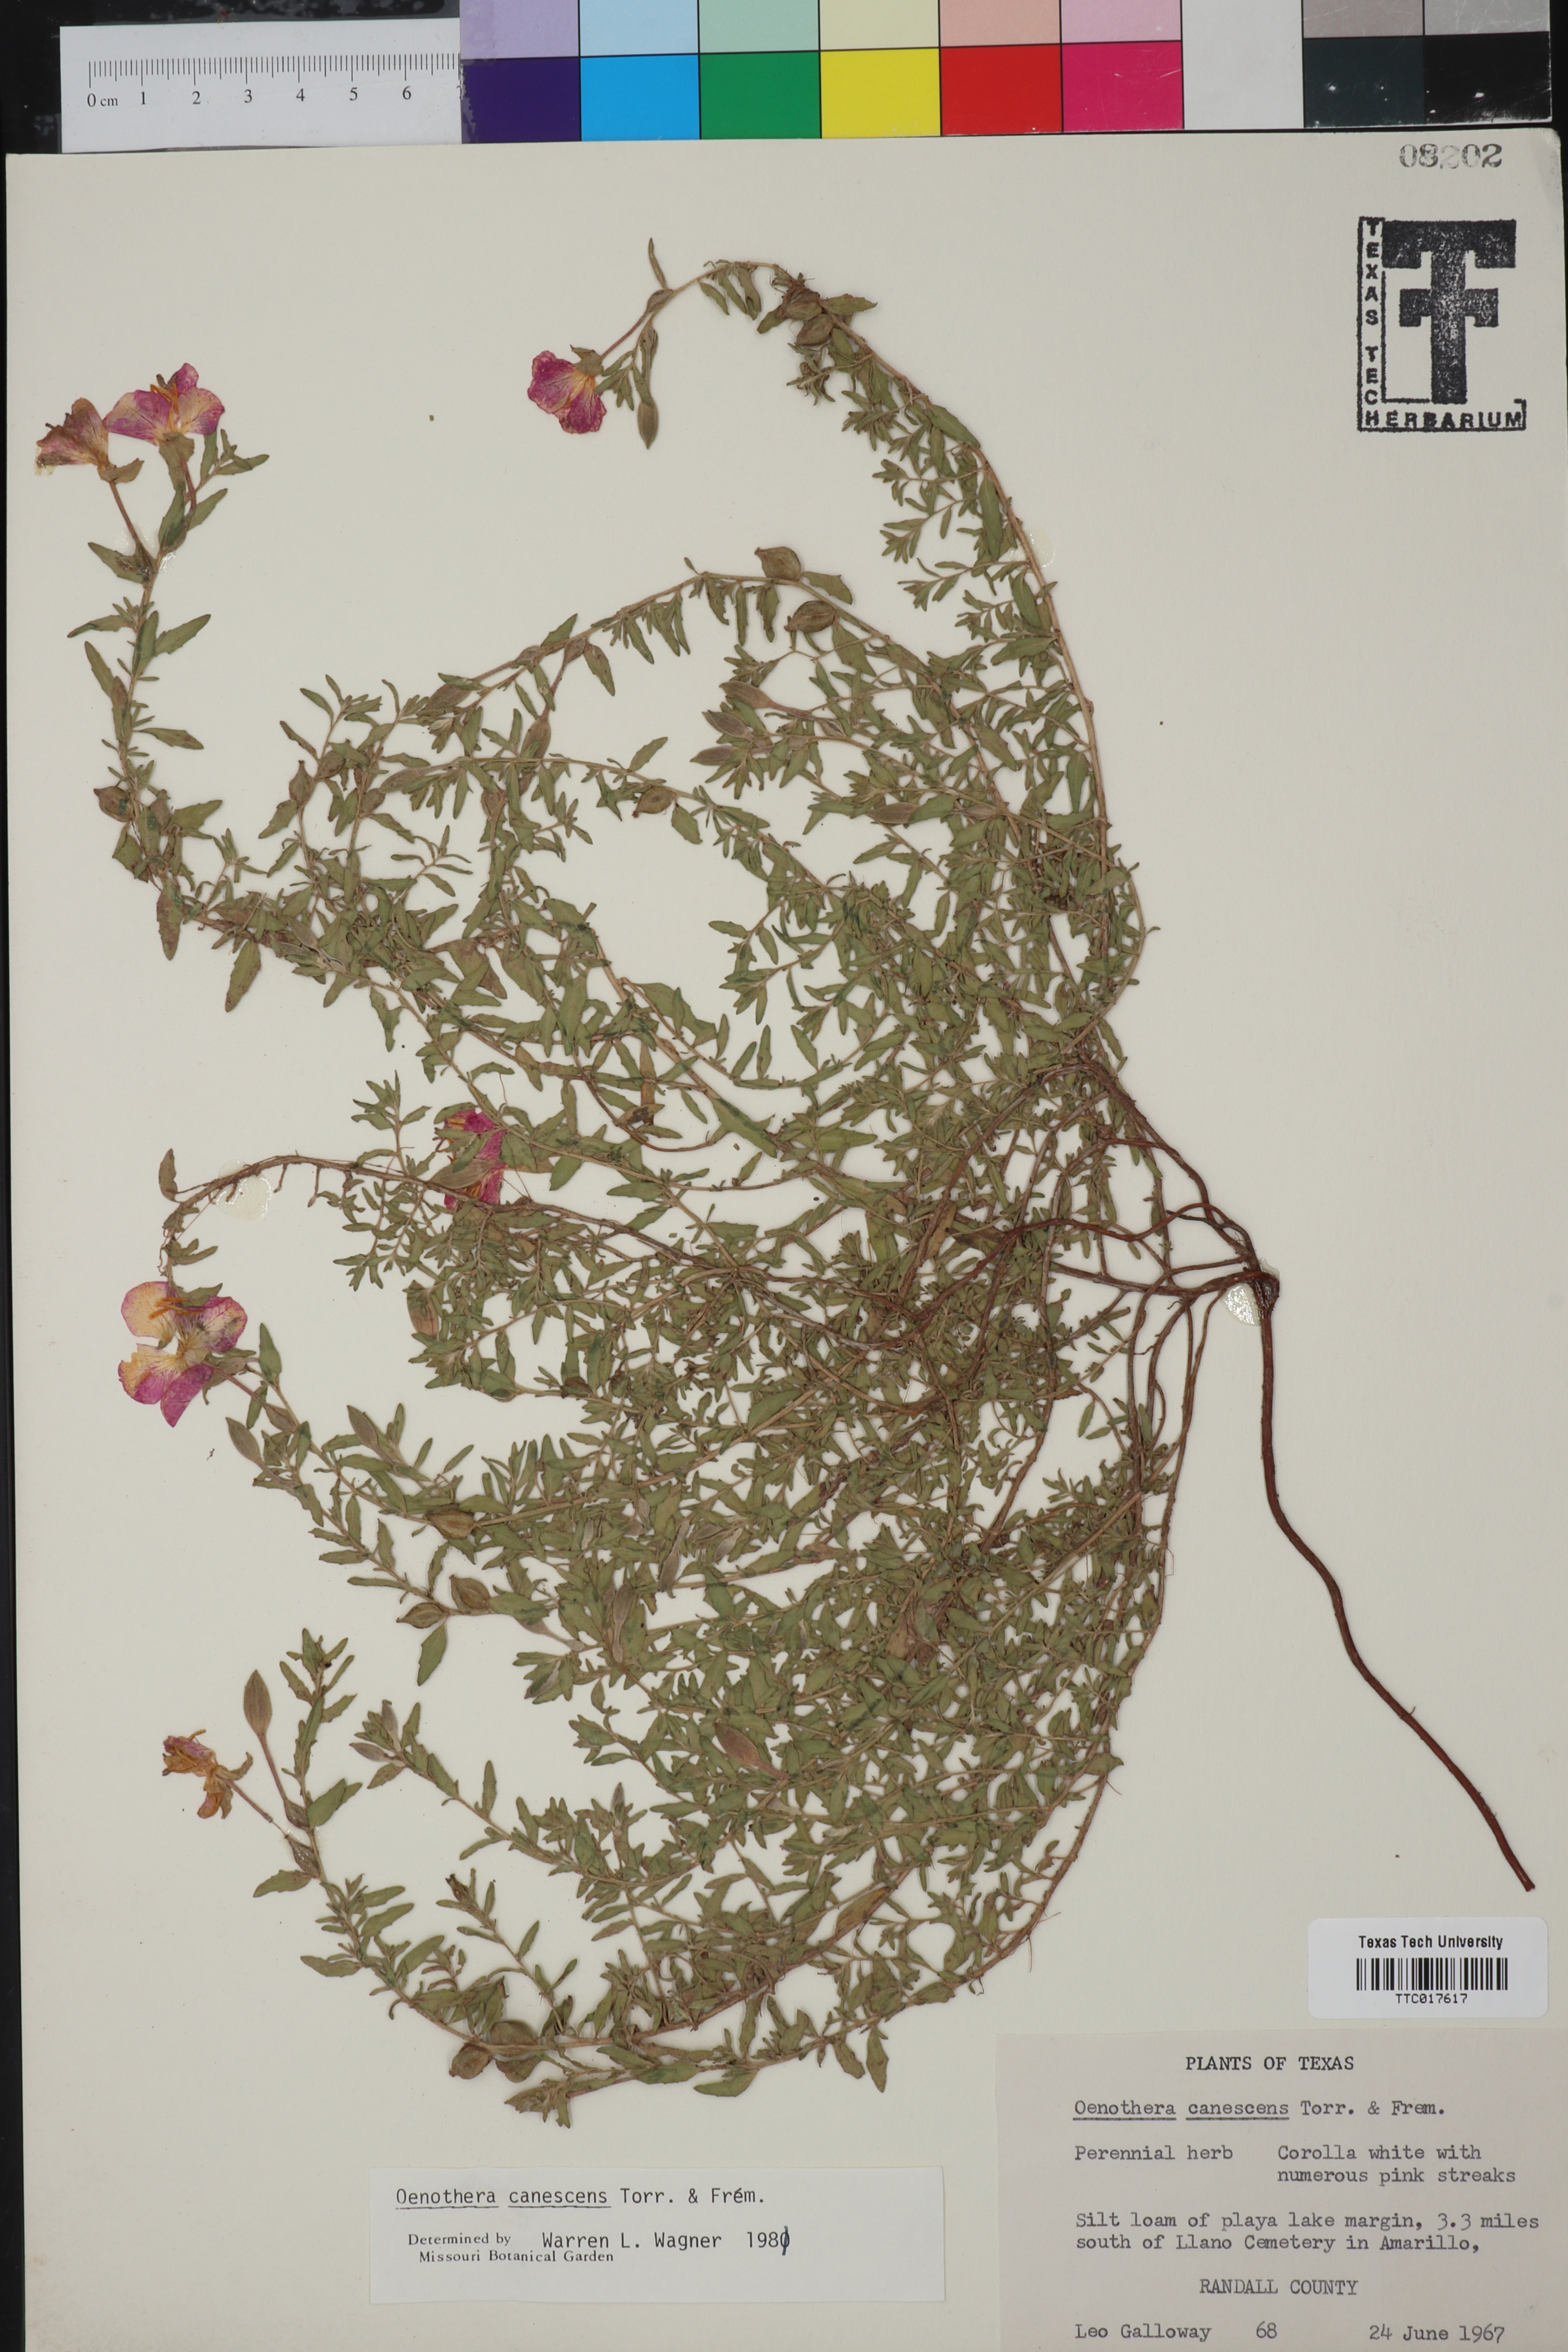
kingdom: Plantae
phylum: Tracheophyta
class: Magnoliopsida
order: Myrtales
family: Onagraceae
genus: Oenothera
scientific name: Oenothera canescens
